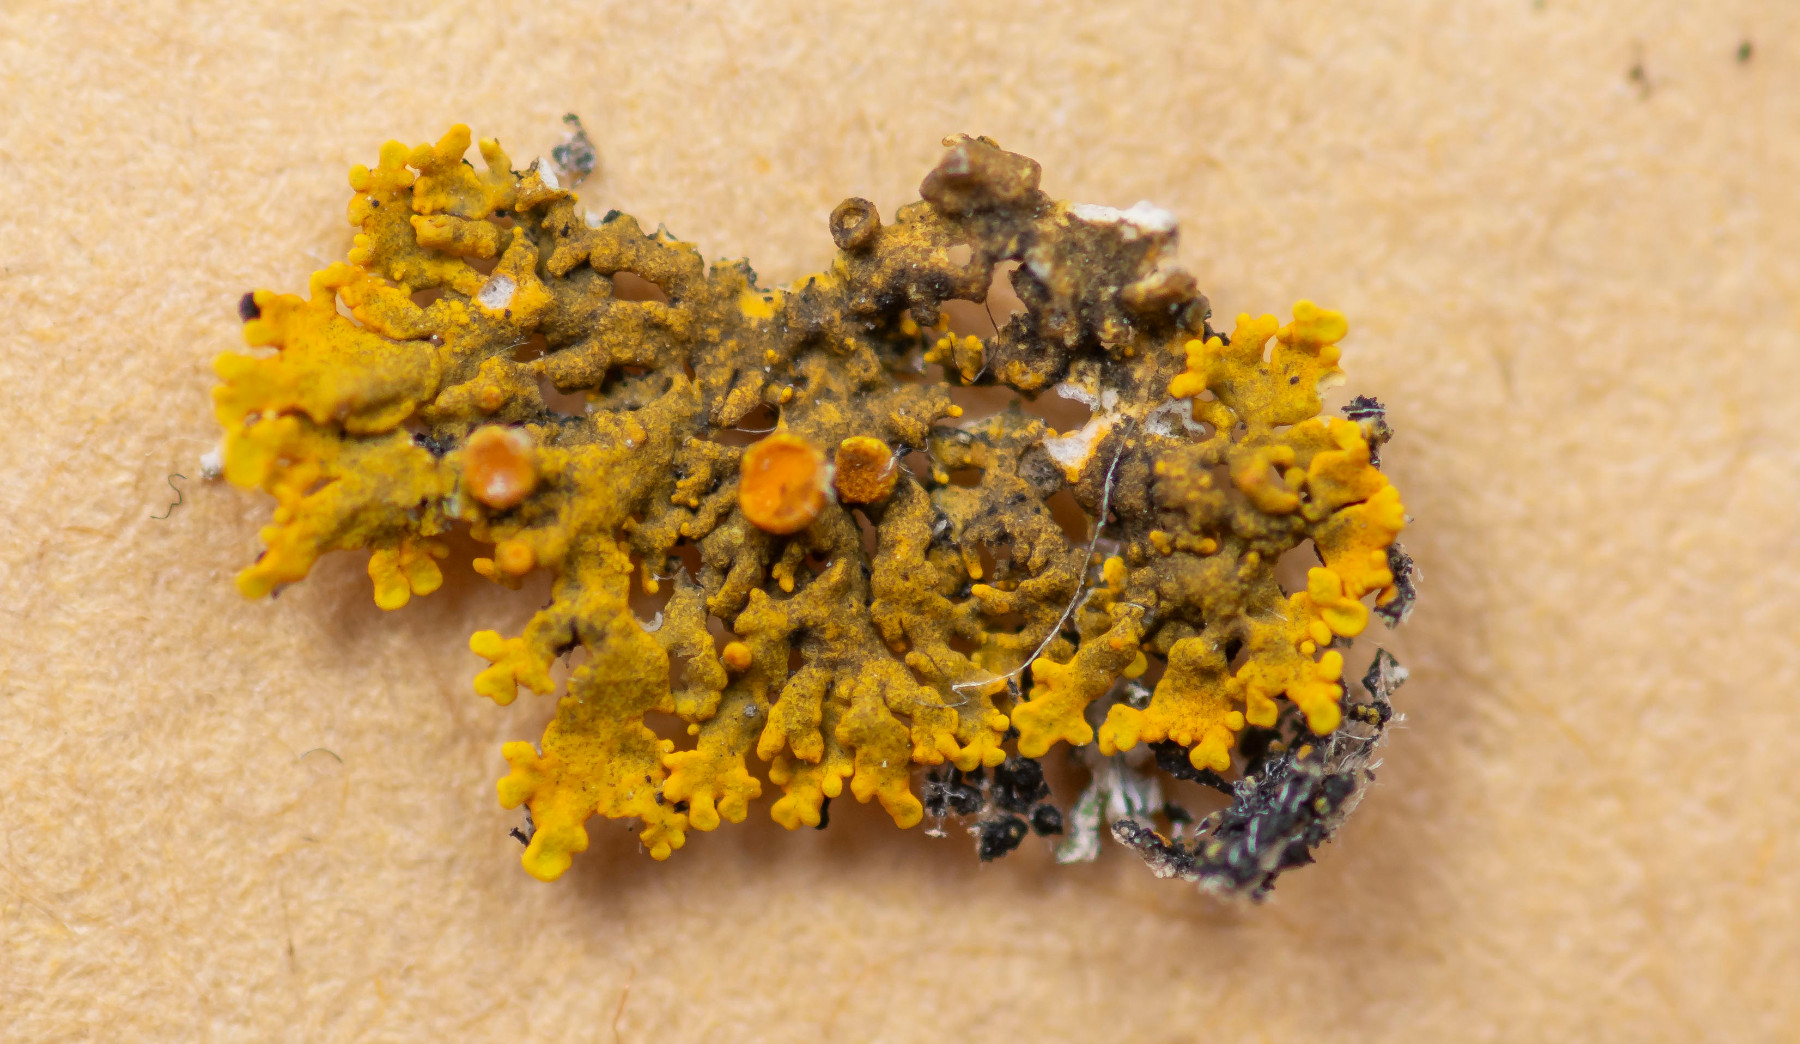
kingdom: Fungi
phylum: Ascomycota
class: Lecanoromycetes
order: Teloschistales
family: Teloschistaceae
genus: Xanthoria
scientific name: Xanthoria aureola
